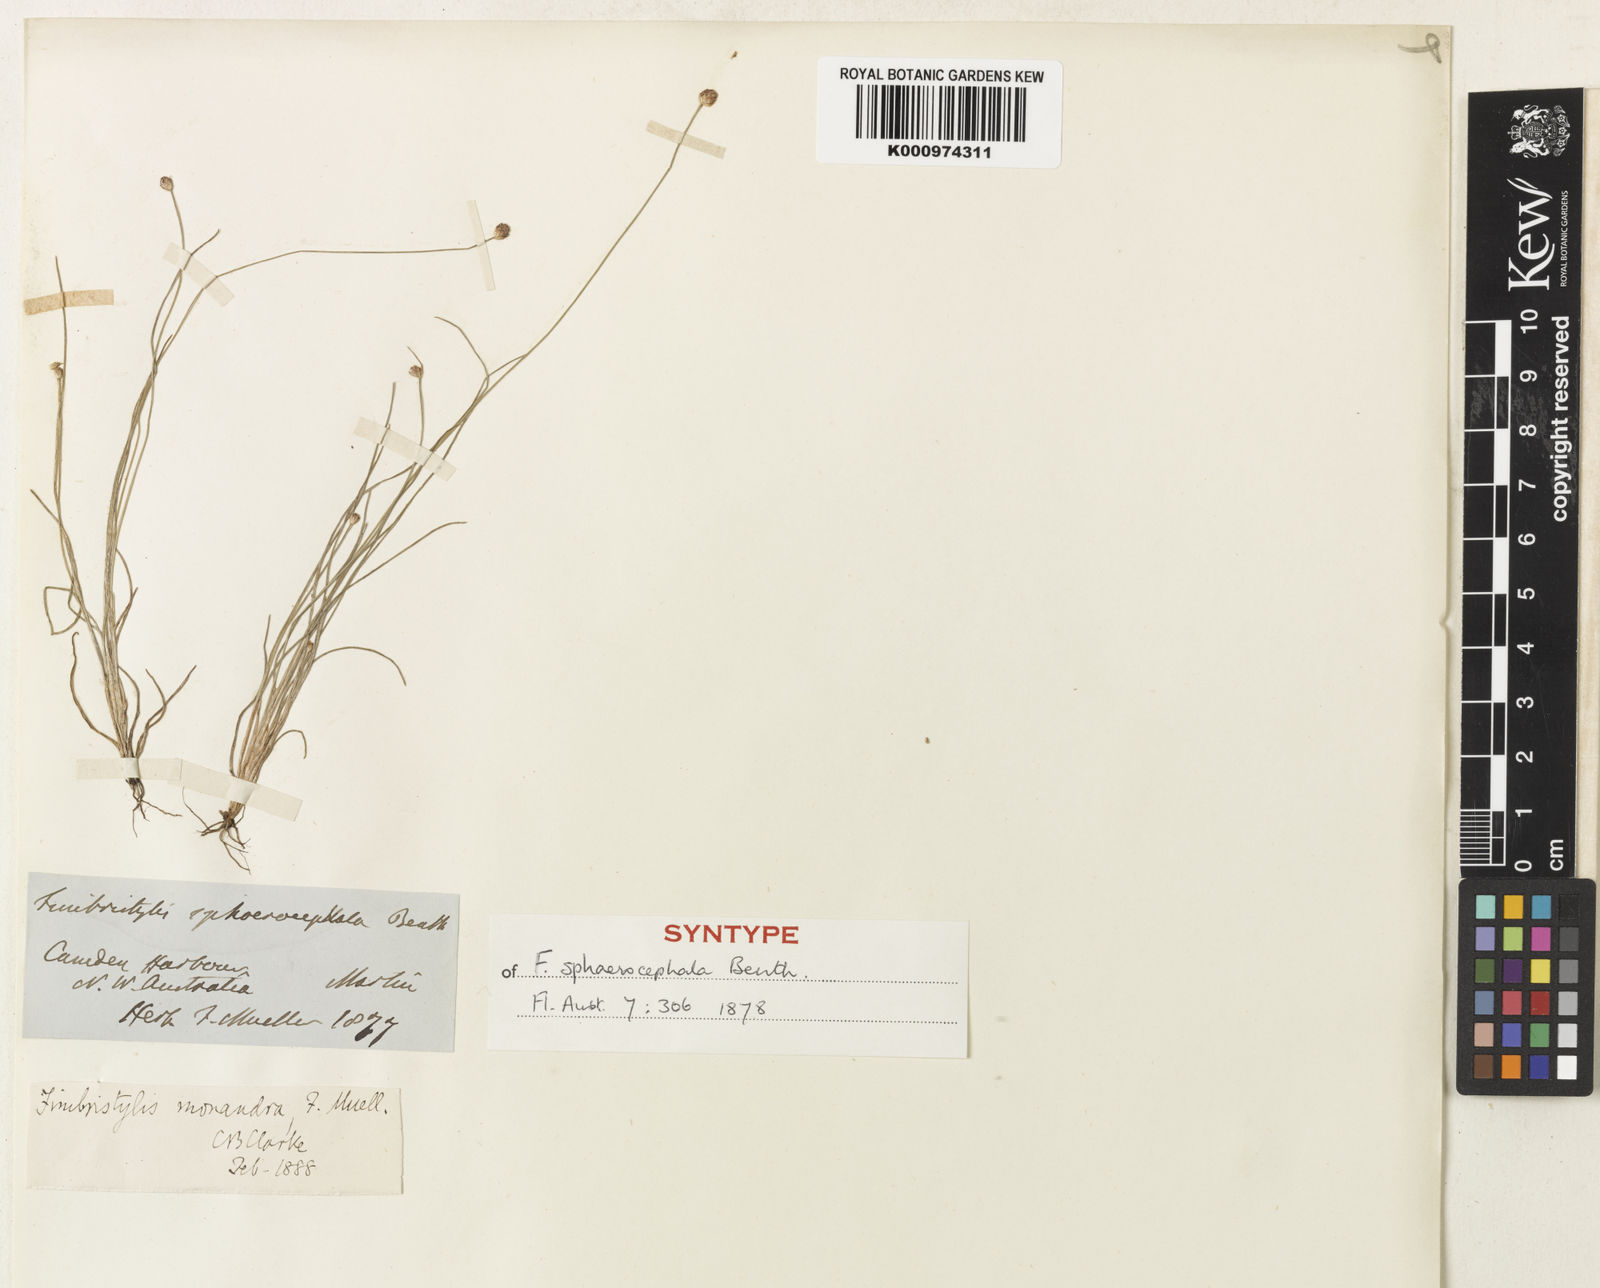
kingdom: Plantae
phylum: Tracheophyta
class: Liliopsida
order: Poales
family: Cyperaceae
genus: Fimbristylis
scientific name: Fimbristylis sphaerocephala
